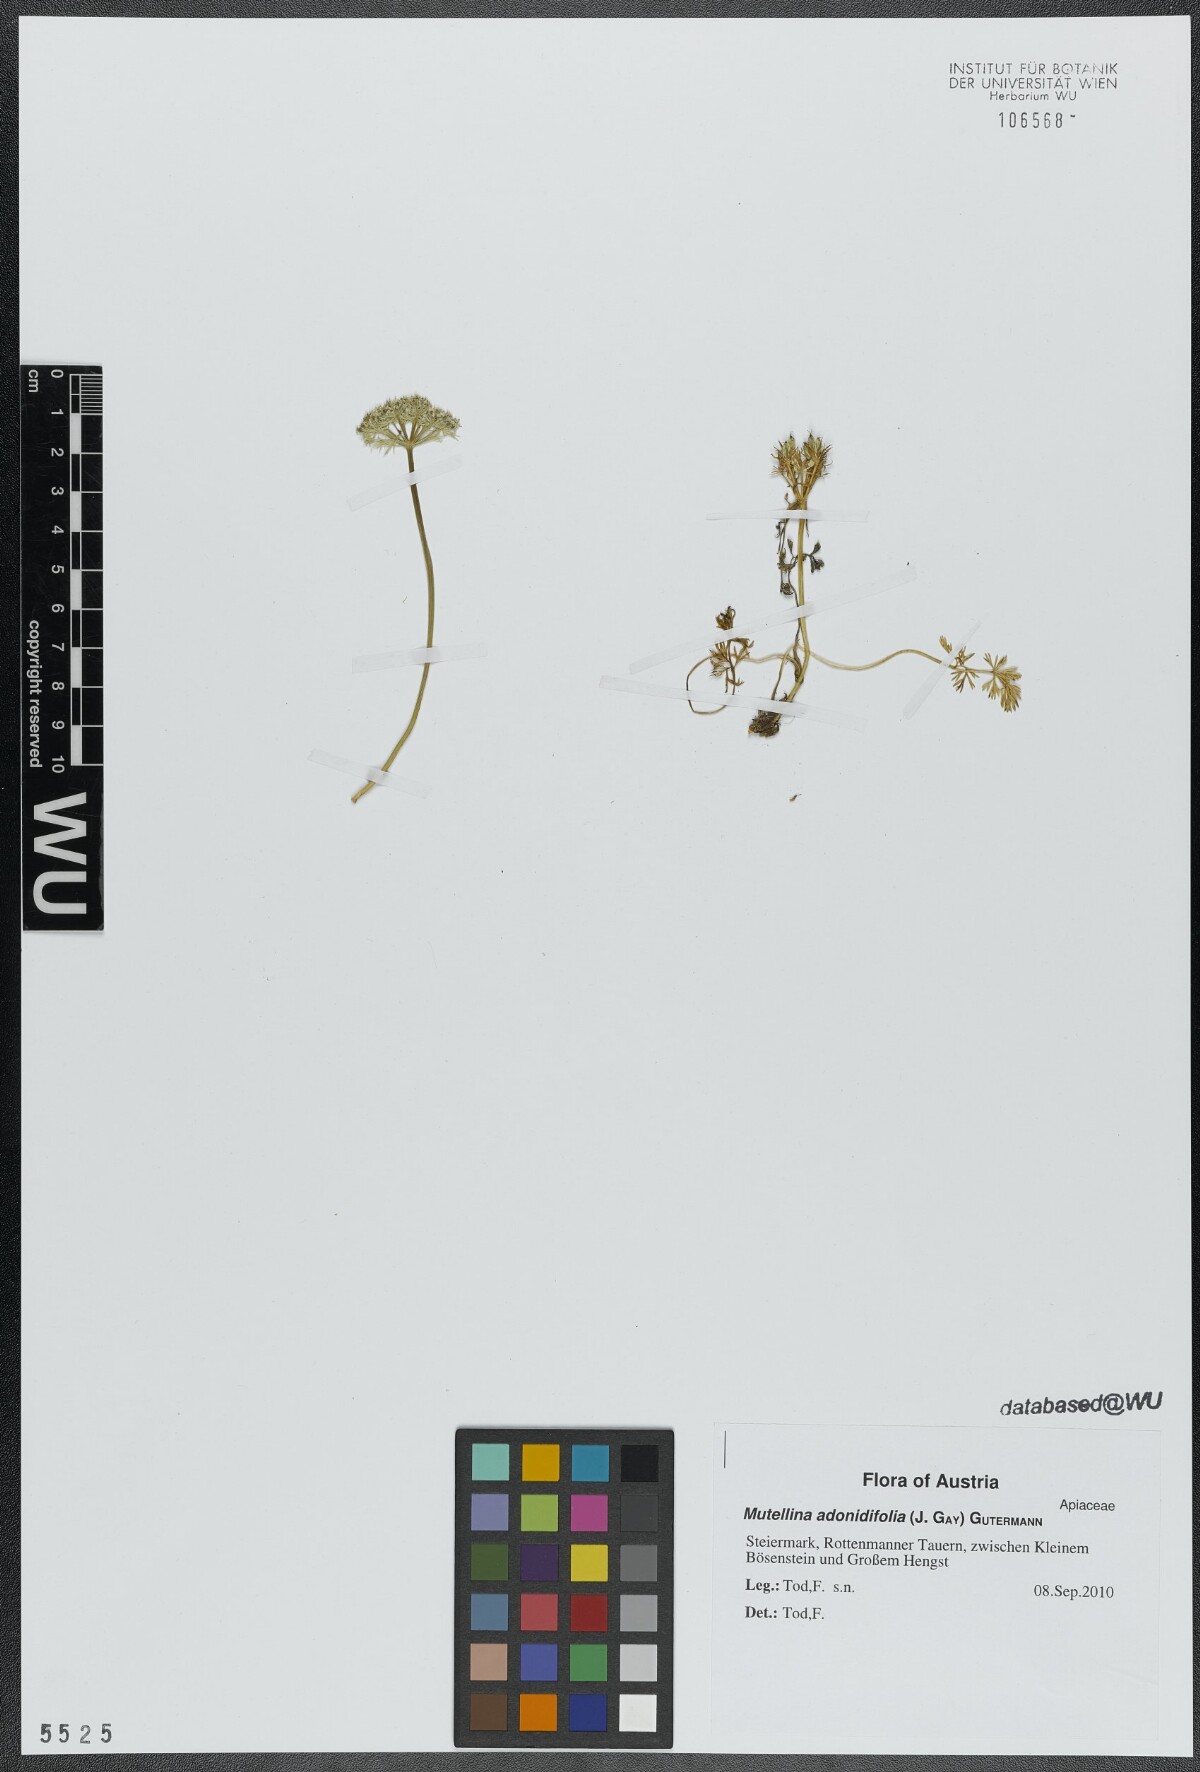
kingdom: Plantae
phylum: Tracheophyta
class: Magnoliopsida
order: Apiales
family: Apiaceae
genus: Mutellina
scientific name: Mutellina adonidifolia
